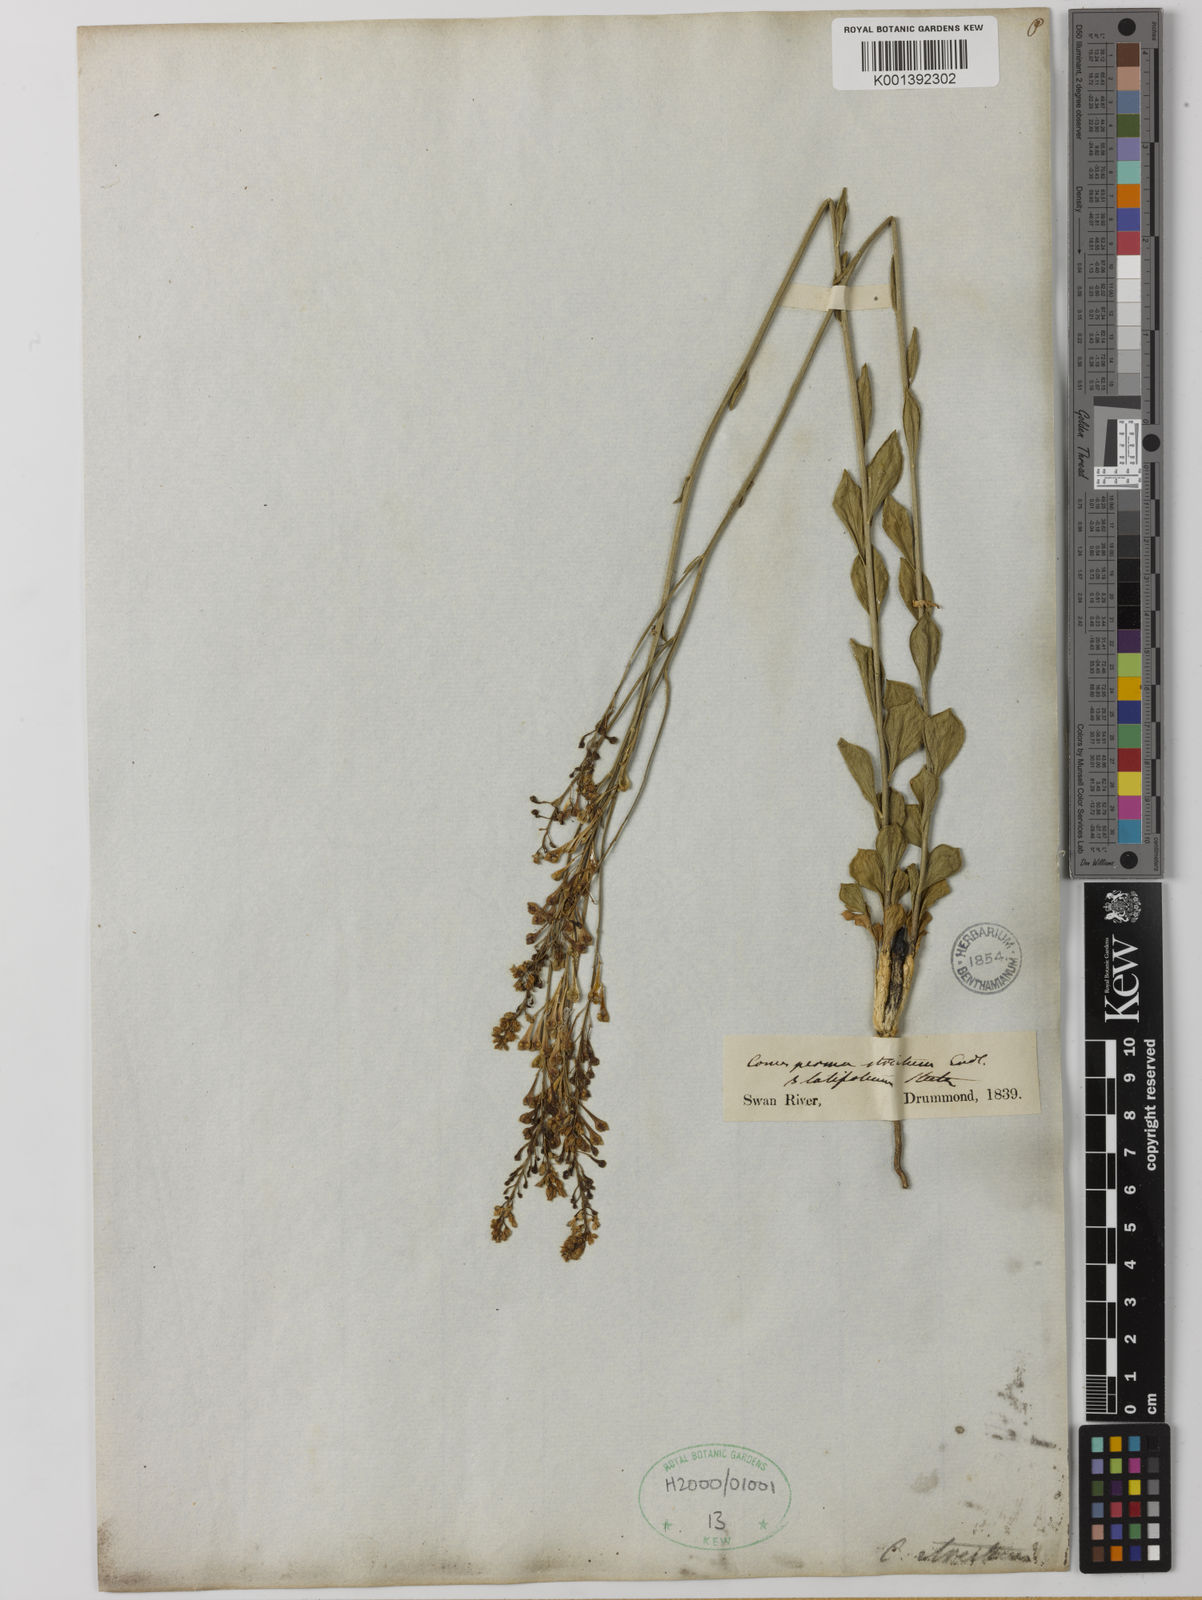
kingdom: Plantae
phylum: Tracheophyta
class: Magnoliopsida
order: Fabales
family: Polygalaceae
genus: Comesperma
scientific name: Comesperma calymega
